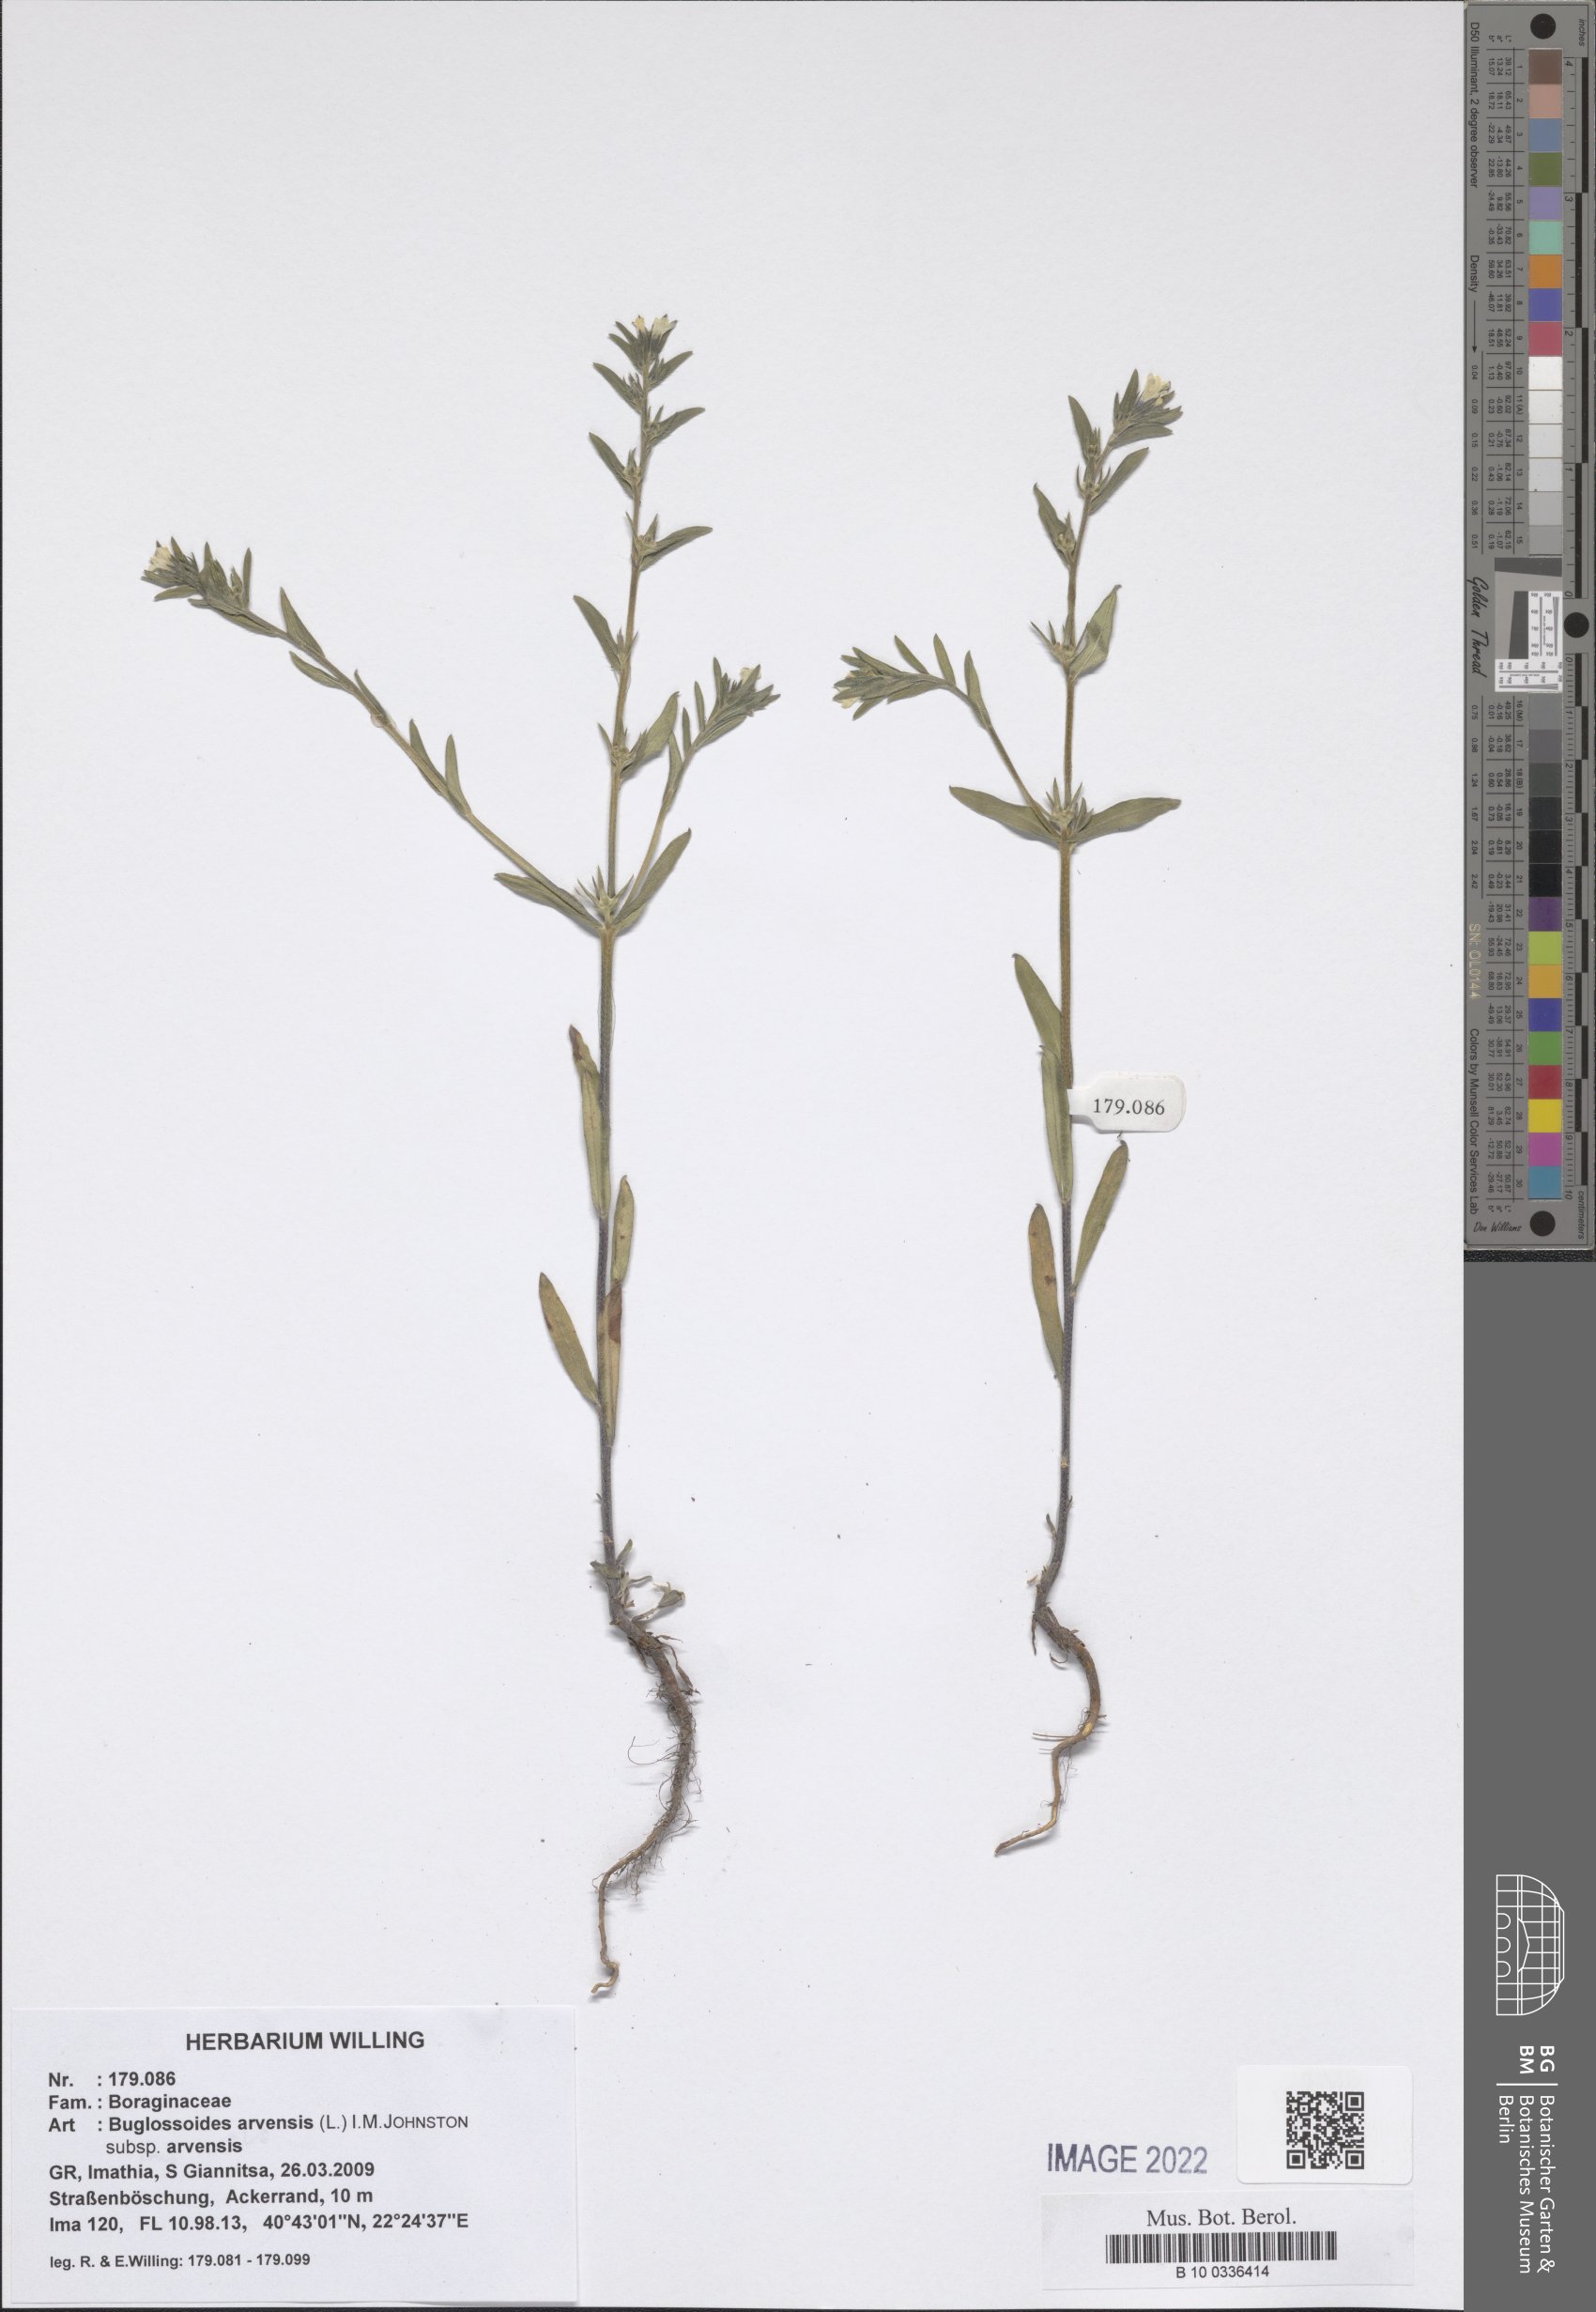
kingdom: Plantae
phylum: Tracheophyta
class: Magnoliopsida
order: Boraginales
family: Boraginaceae
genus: Buglossoides
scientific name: Buglossoides arvensis
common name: Corn gromwell
